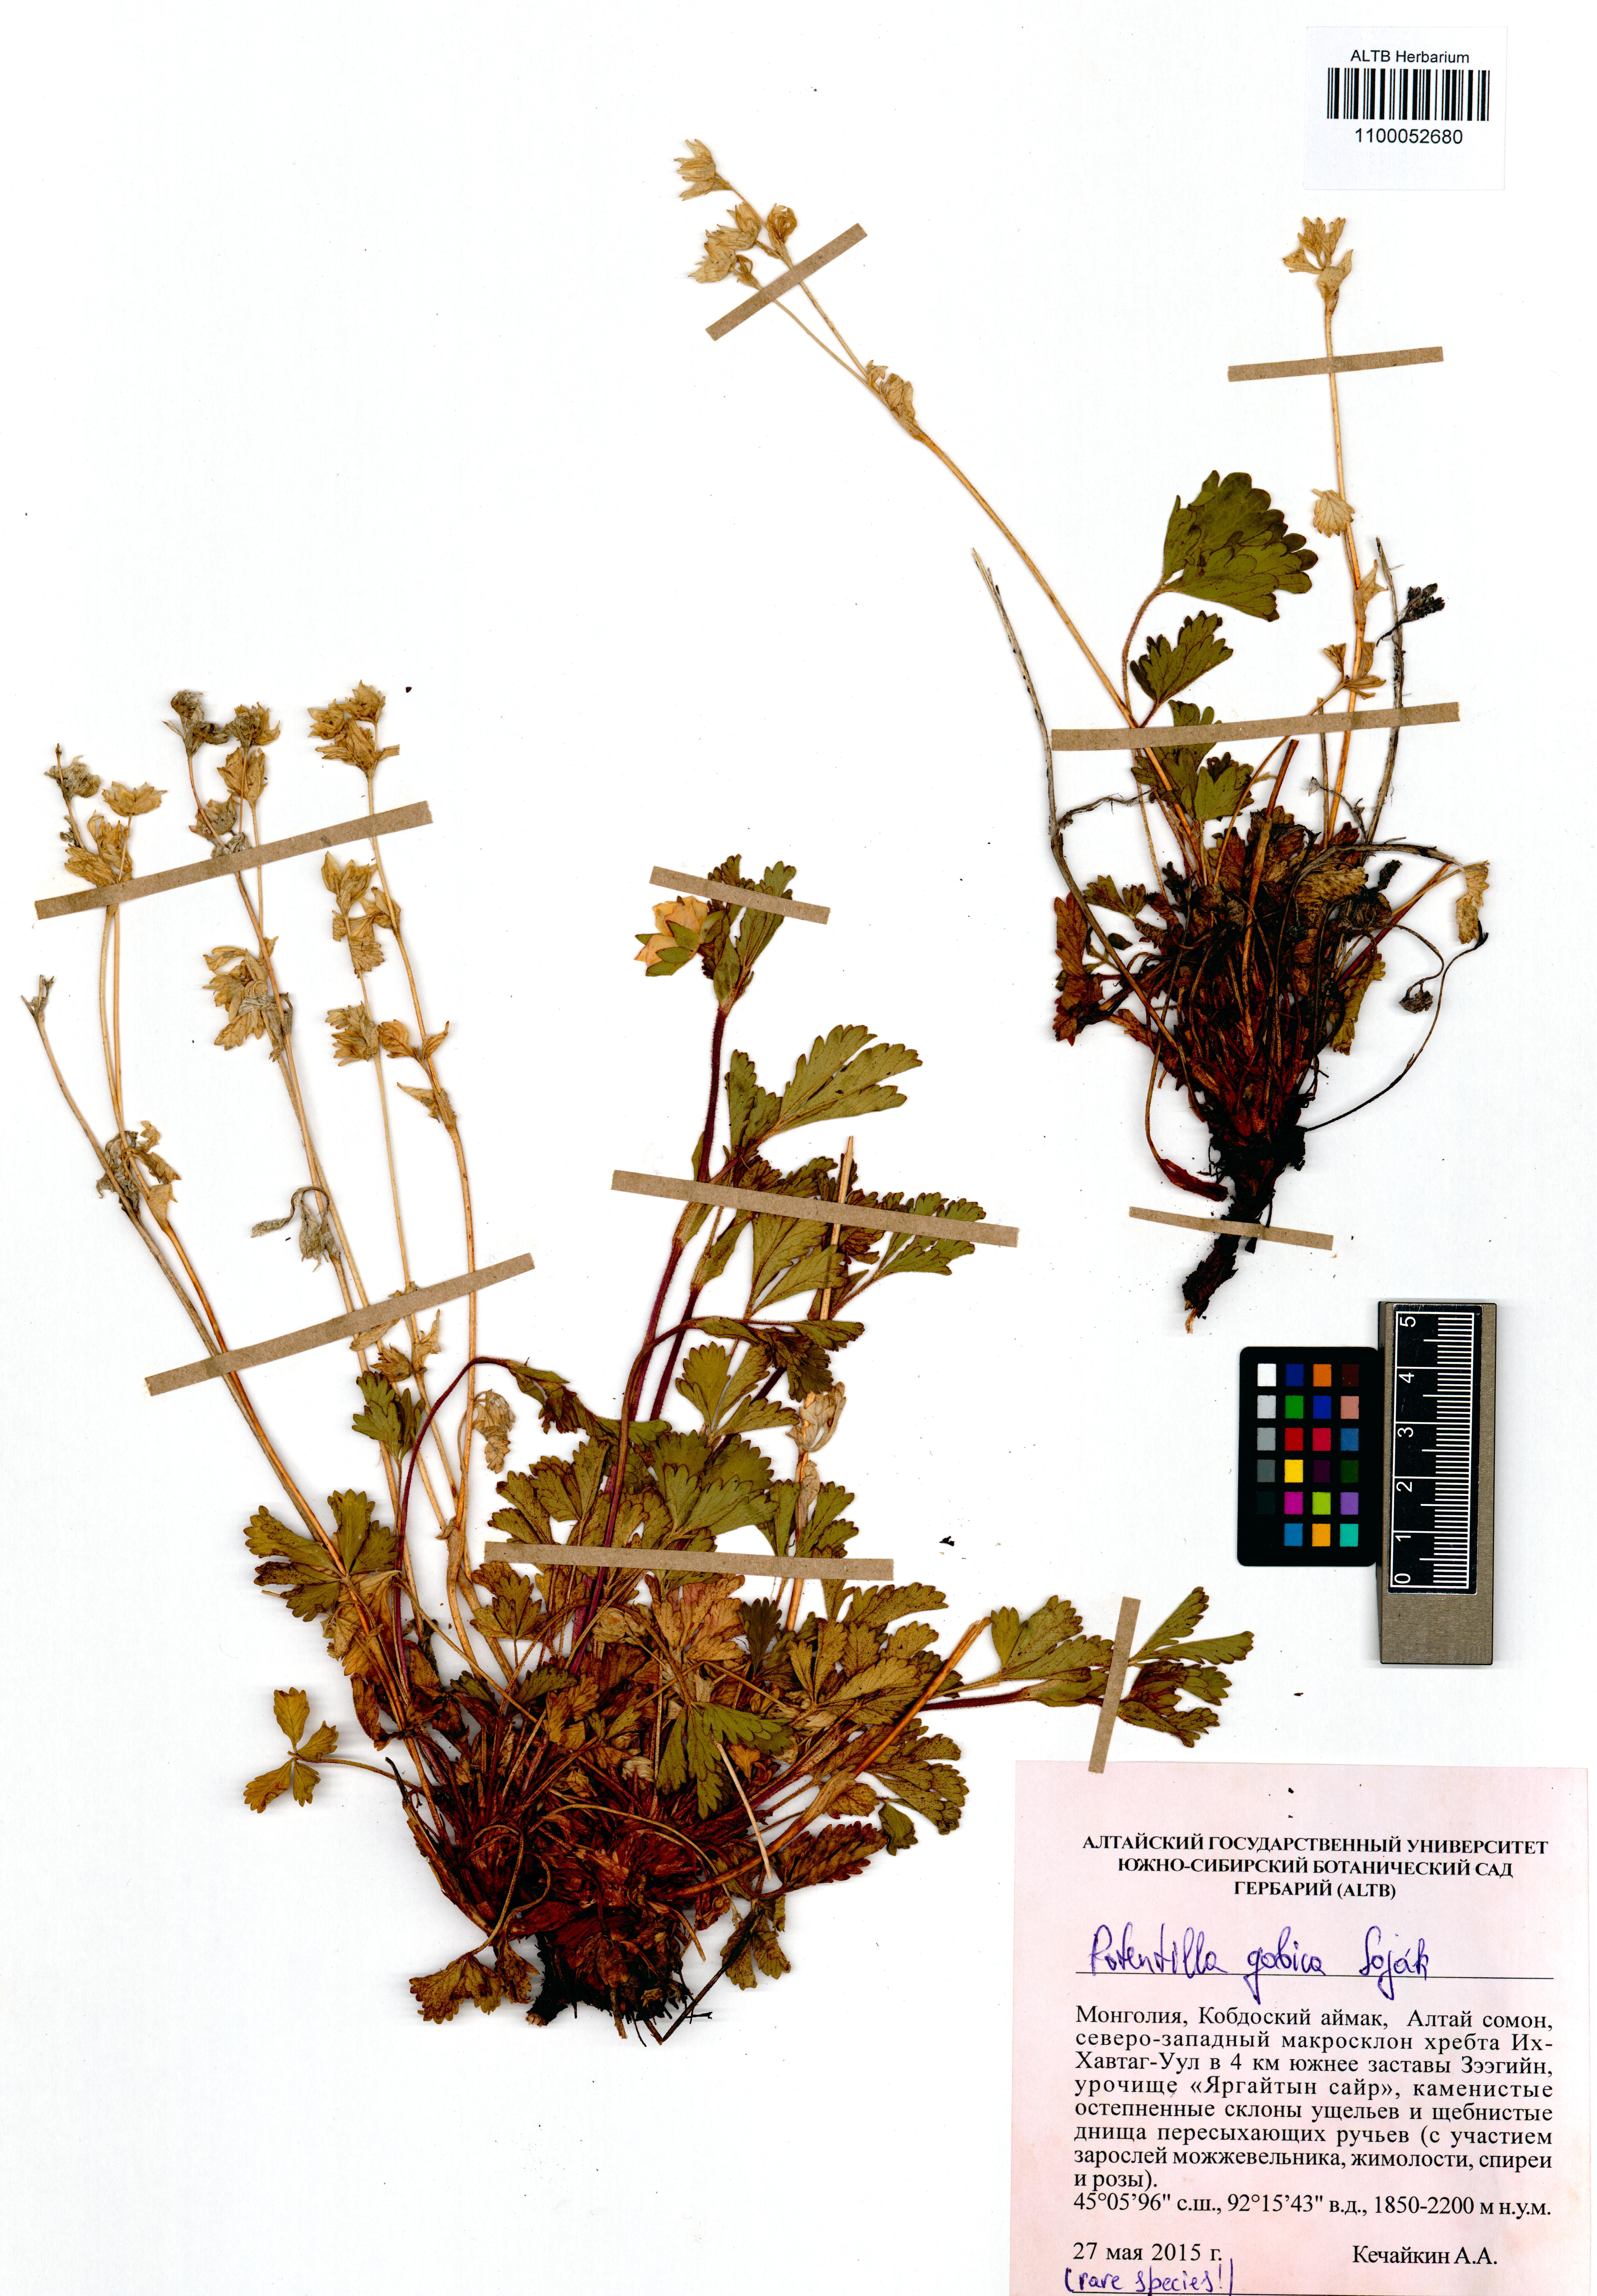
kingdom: Plantae
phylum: Tracheophyta
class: Magnoliopsida
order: Rosales
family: Rosaceae
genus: Potentilla
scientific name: Potentilla gobica
